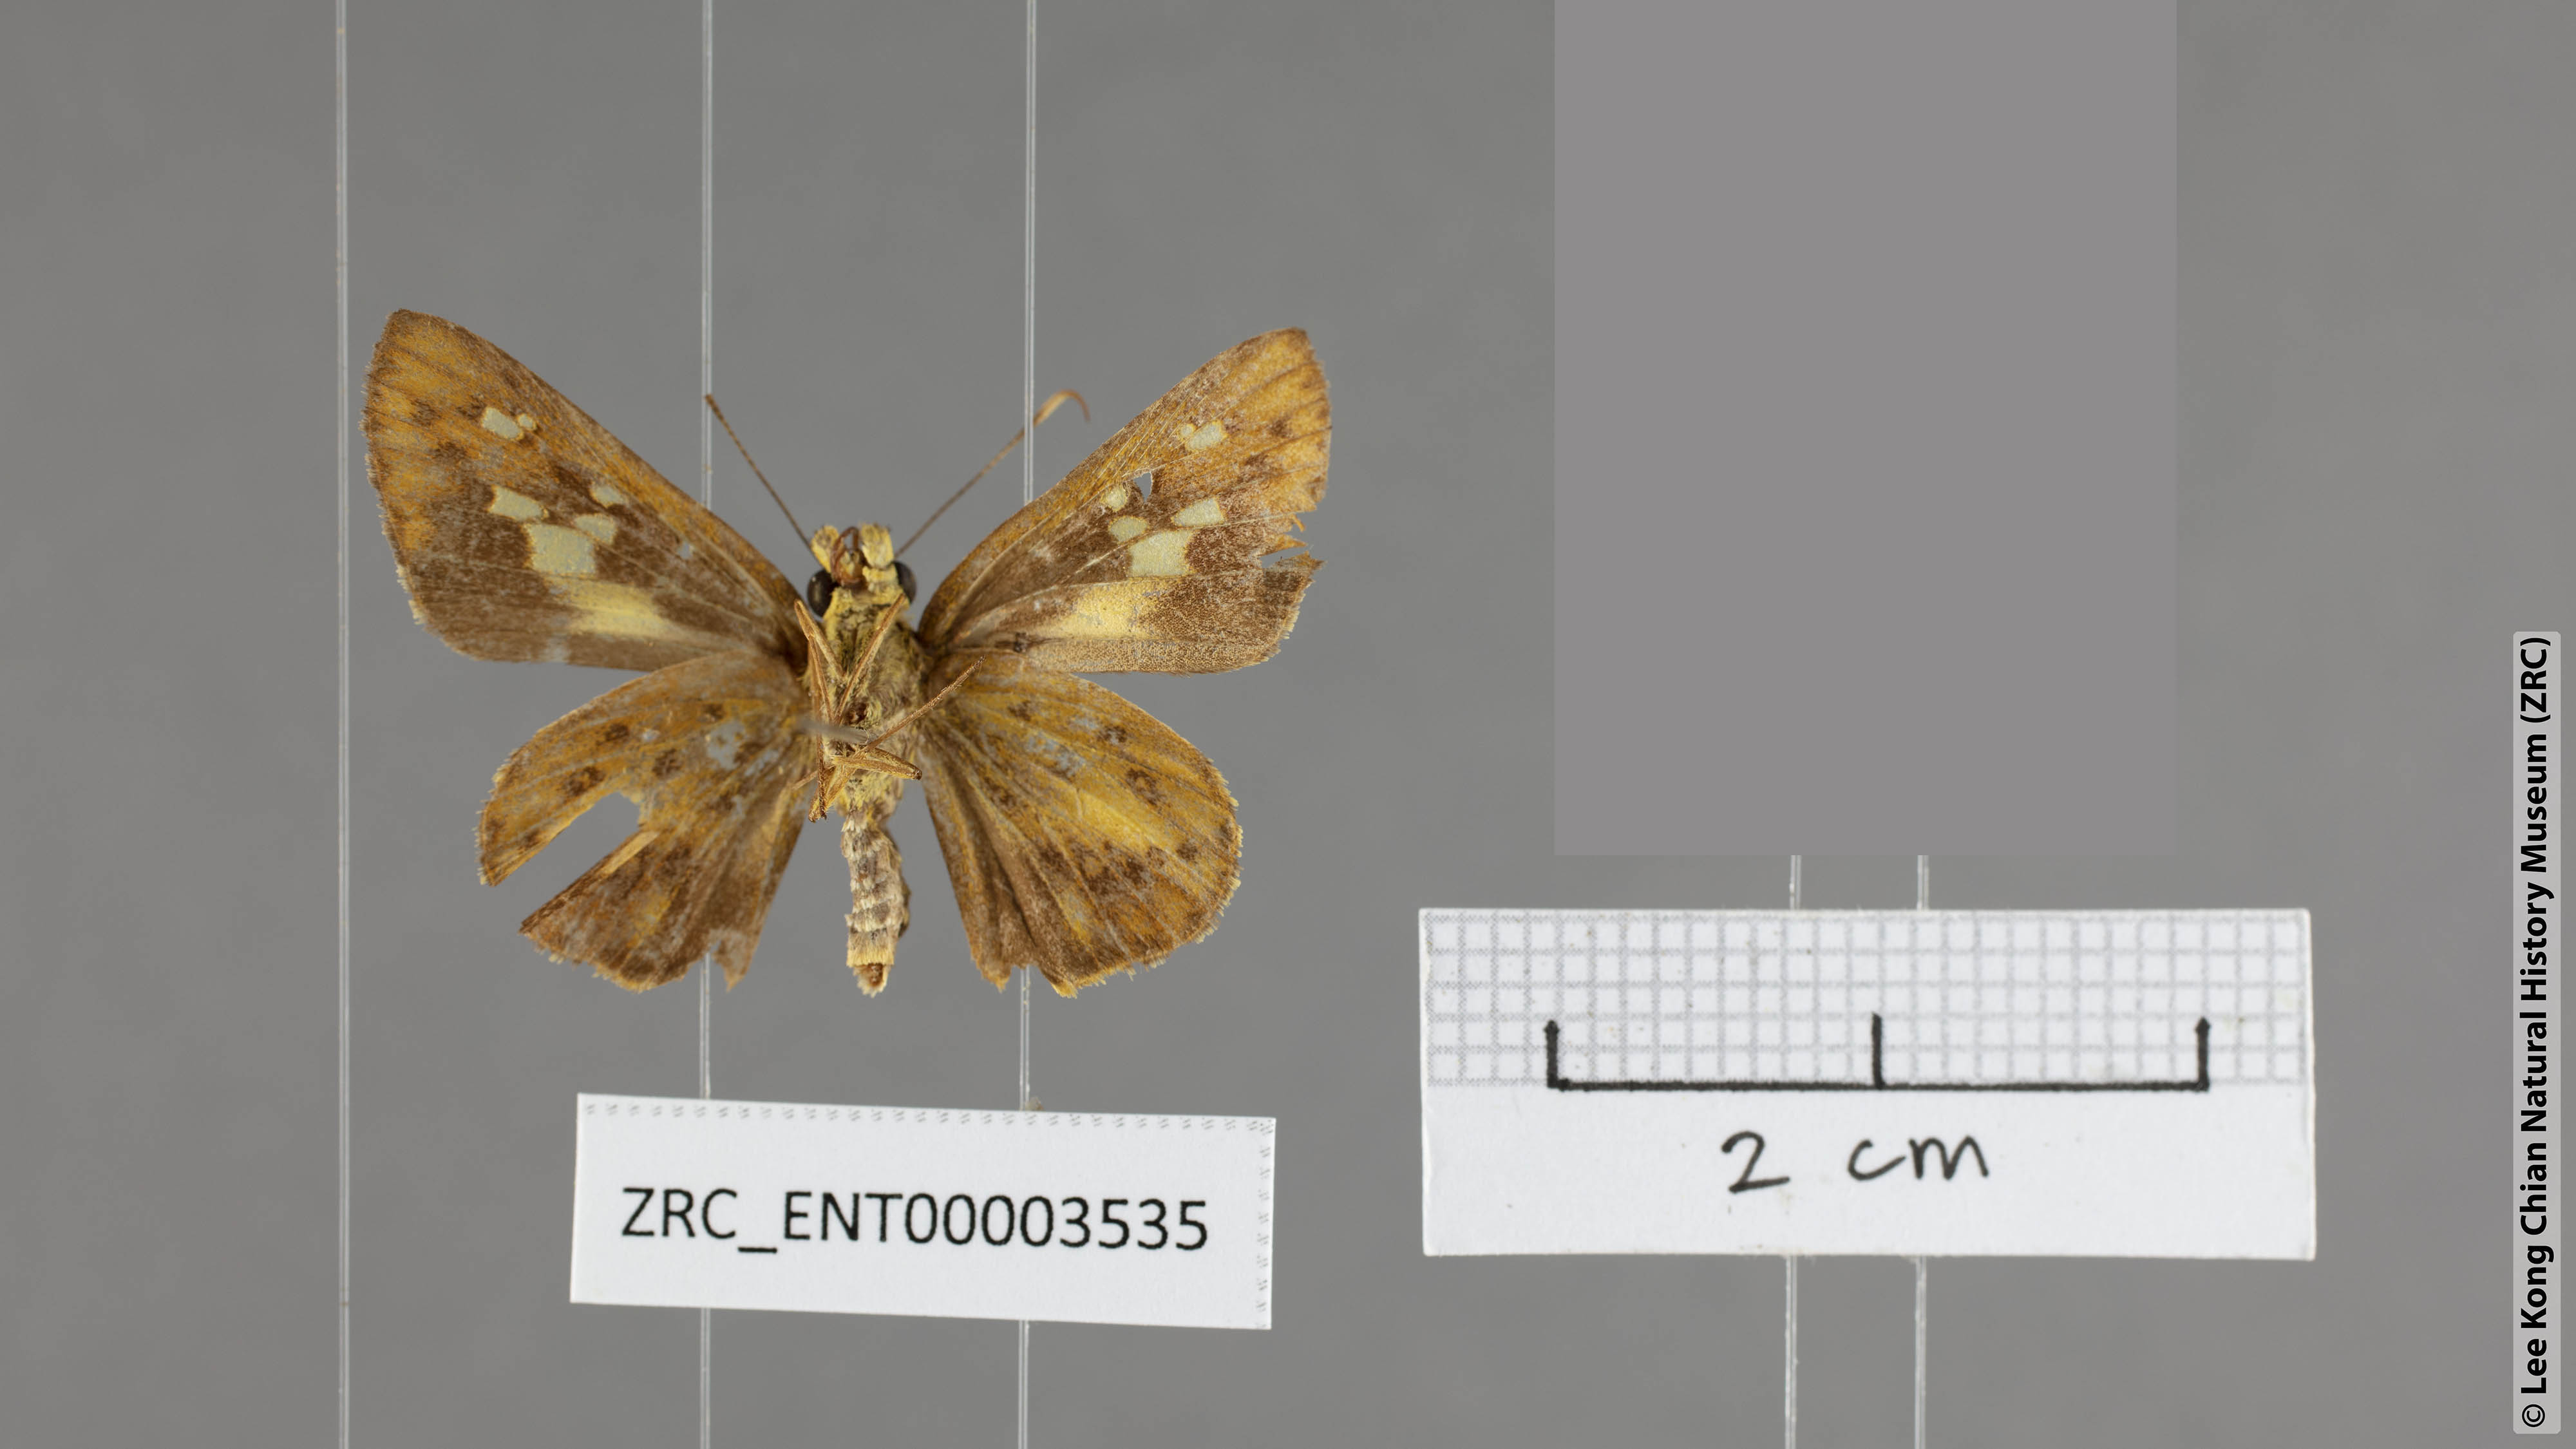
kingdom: Animalia
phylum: Arthropoda
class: Insecta
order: Lepidoptera
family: Hesperiidae
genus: Salanoemia
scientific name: Salanoemia tavoyana
